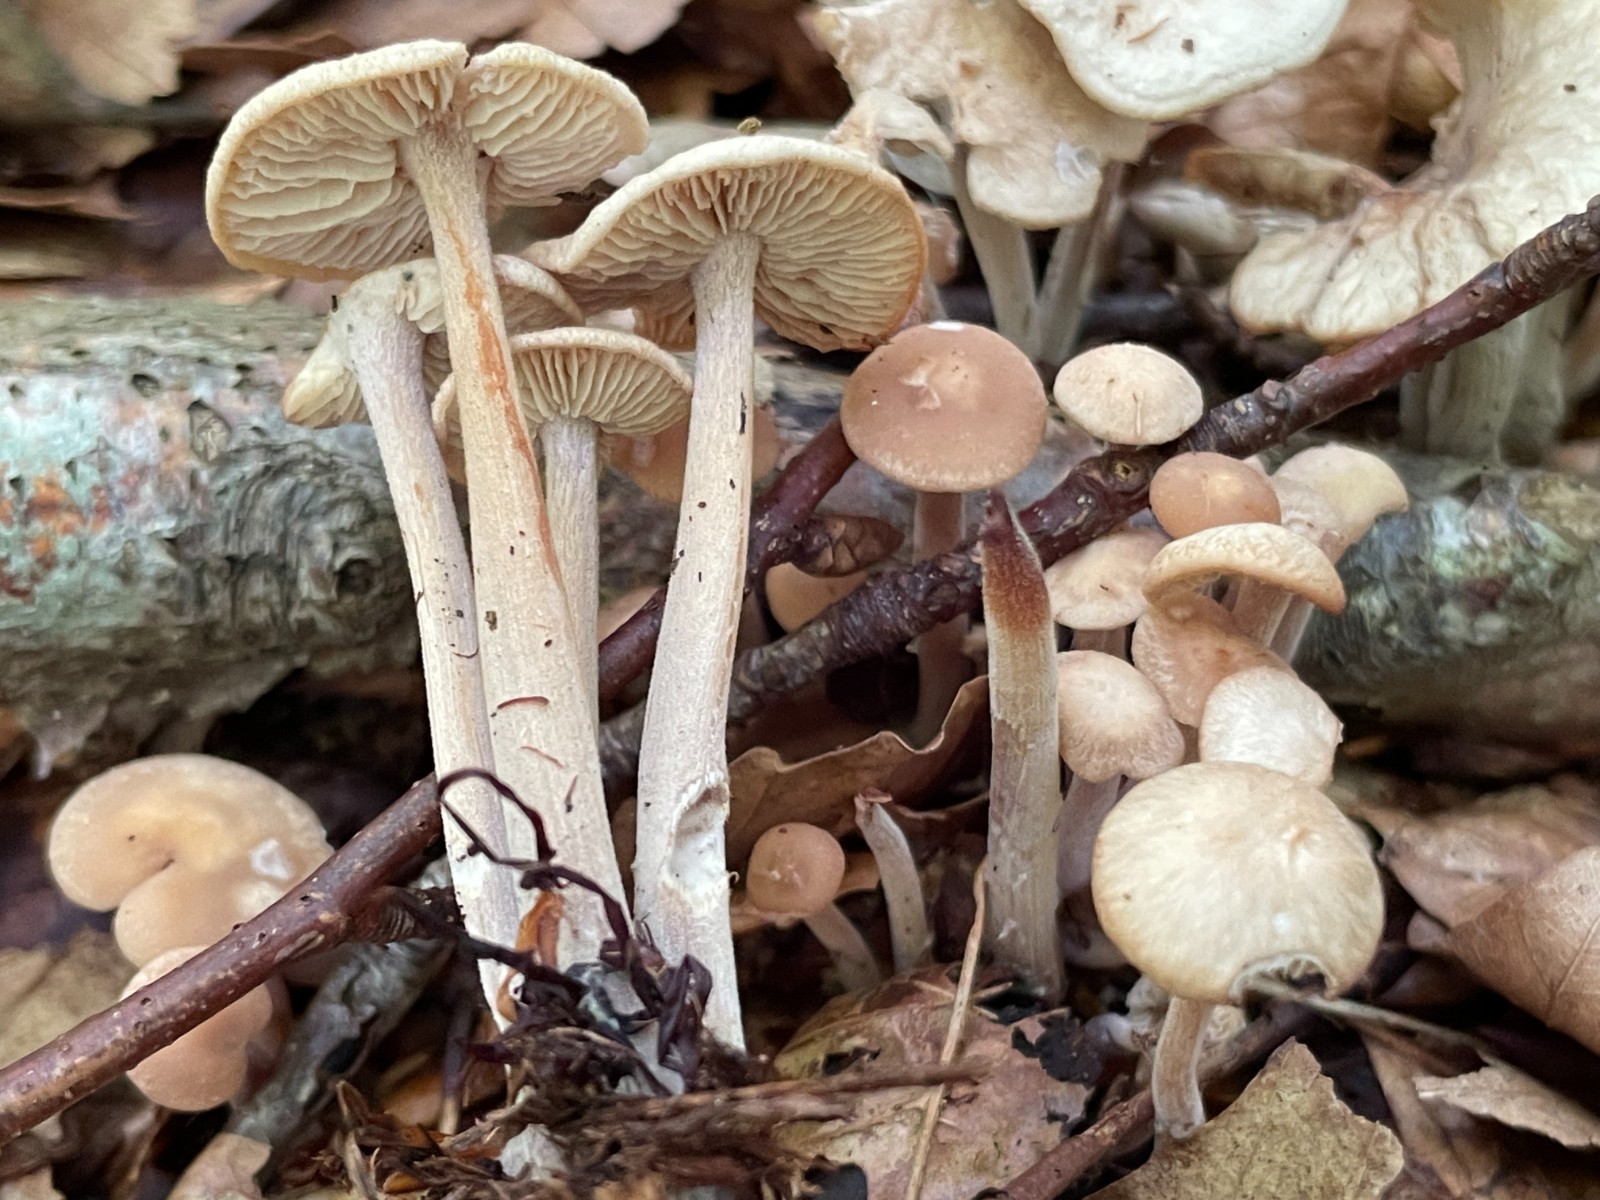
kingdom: Fungi
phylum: Basidiomycota
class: Agaricomycetes
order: Agaricales
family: Omphalotaceae
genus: Collybiopsis
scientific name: Collybiopsis confluens
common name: knippe-fladhat
